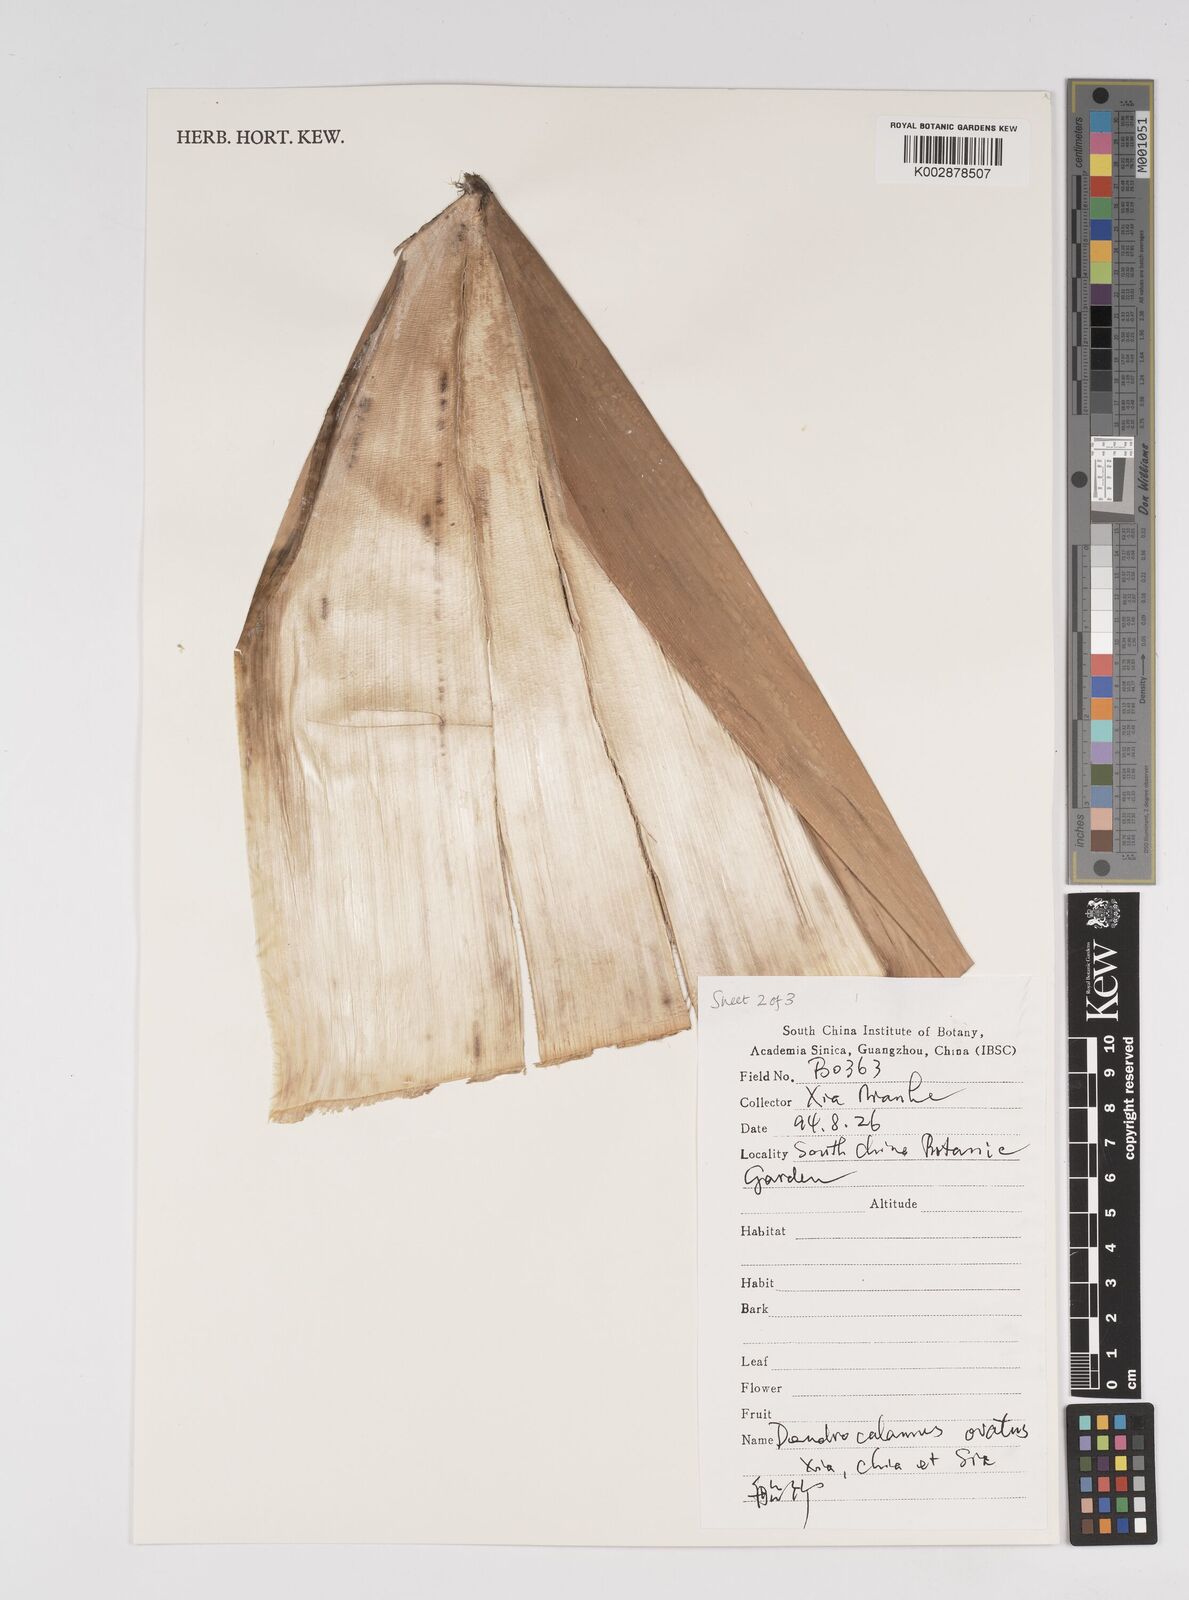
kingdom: Plantae
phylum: Tracheophyta
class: Liliopsida
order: Poales
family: Poaceae
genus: Dendrocalamus
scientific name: Dendrocalamus farinosus
